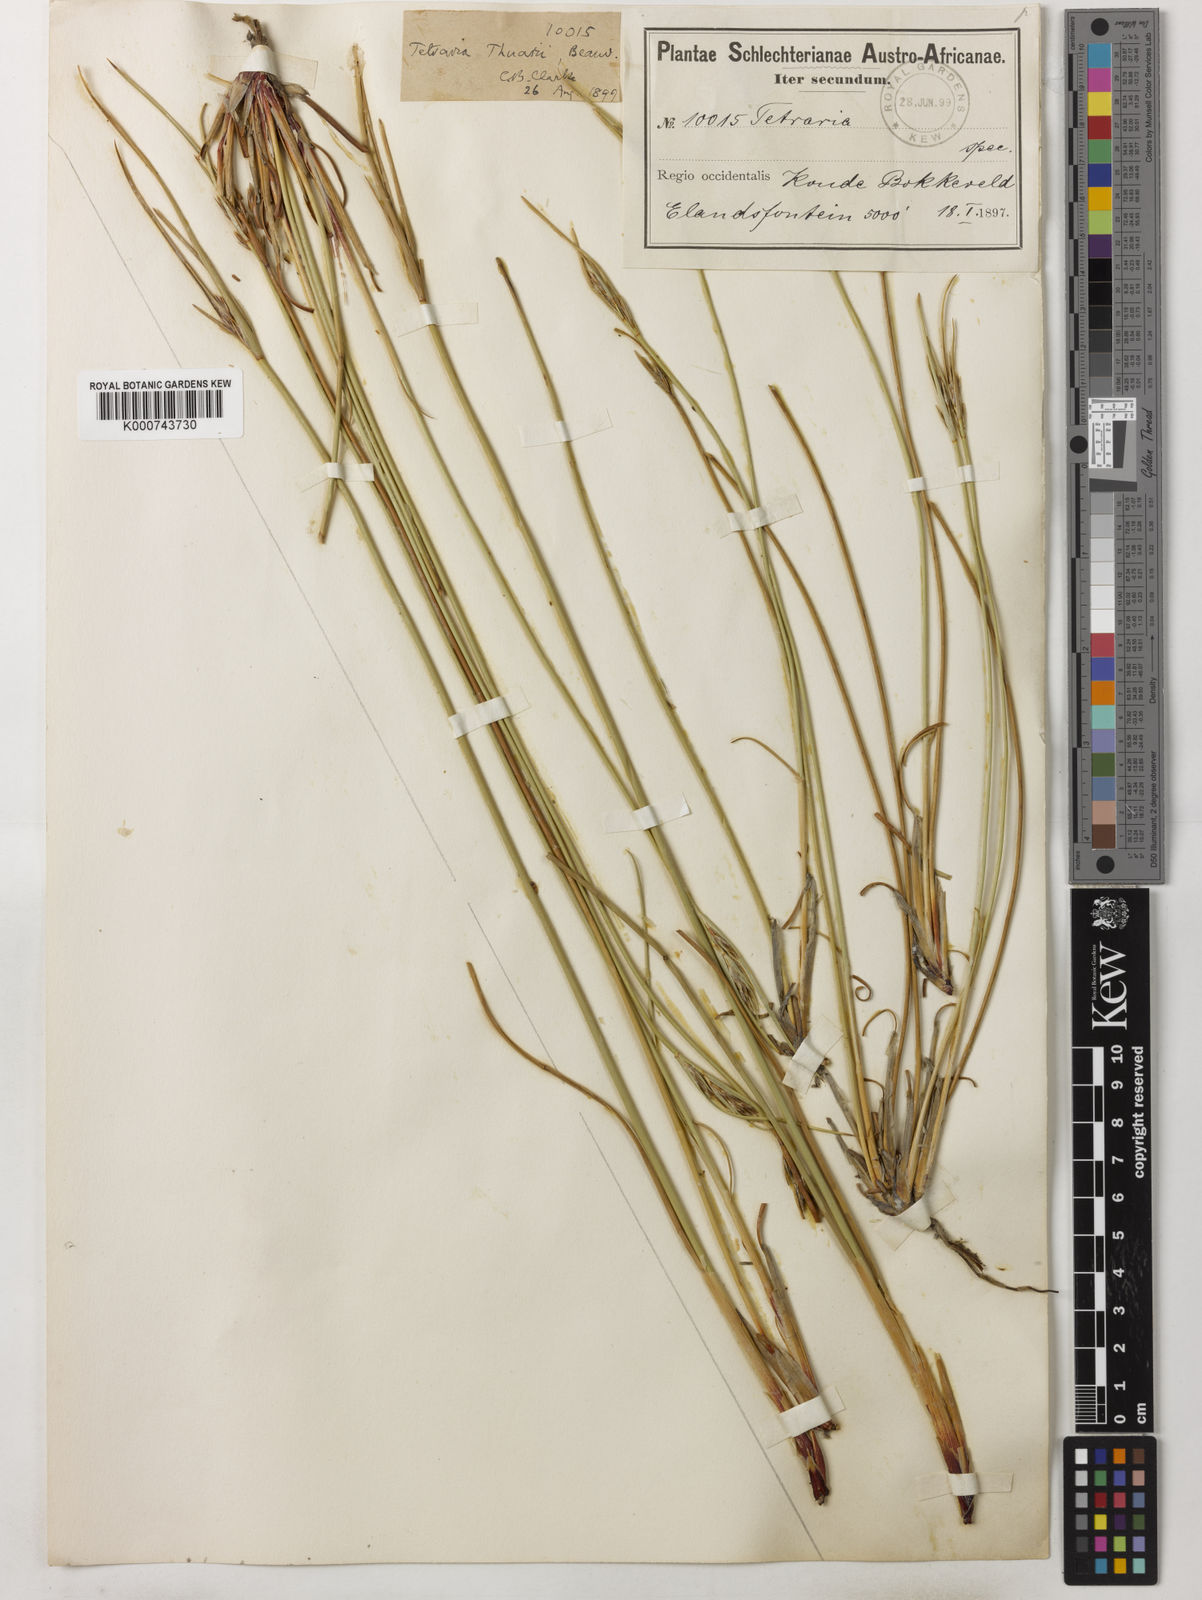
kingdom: Plantae
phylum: Tracheophyta
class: Liliopsida
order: Poales
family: Cyperaceae
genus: Tetraria
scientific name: Tetraria
